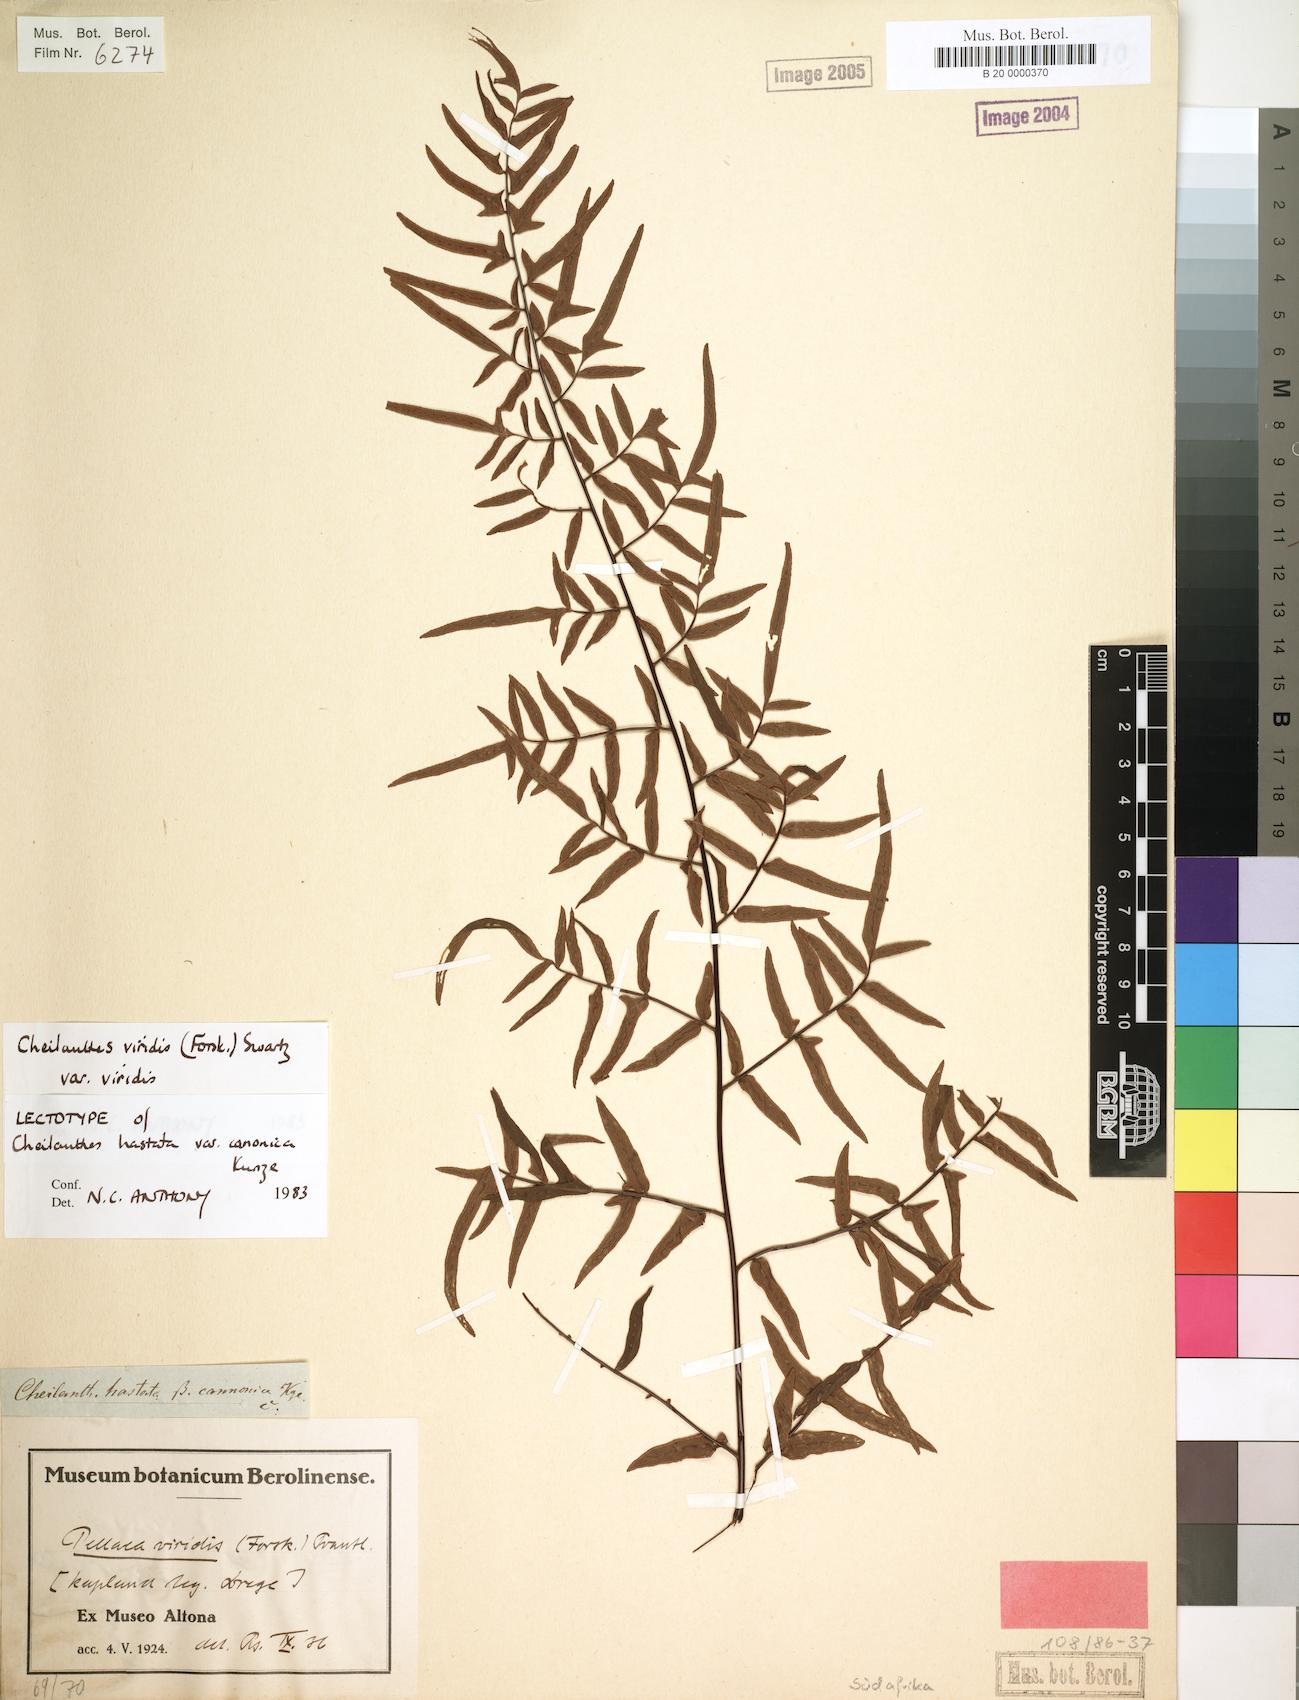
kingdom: Plantae
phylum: Tracheophyta
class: Polypodiopsida
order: Polypodiales
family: Pteridaceae
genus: Cheilanthes
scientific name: Cheilanthes viridis
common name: Green cliffbrake
